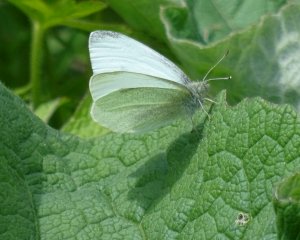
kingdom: Animalia
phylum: Arthropoda
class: Insecta
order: Lepidoptera
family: Pieridae
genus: Pieris
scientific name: Pieris rapae
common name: Cabbage White
